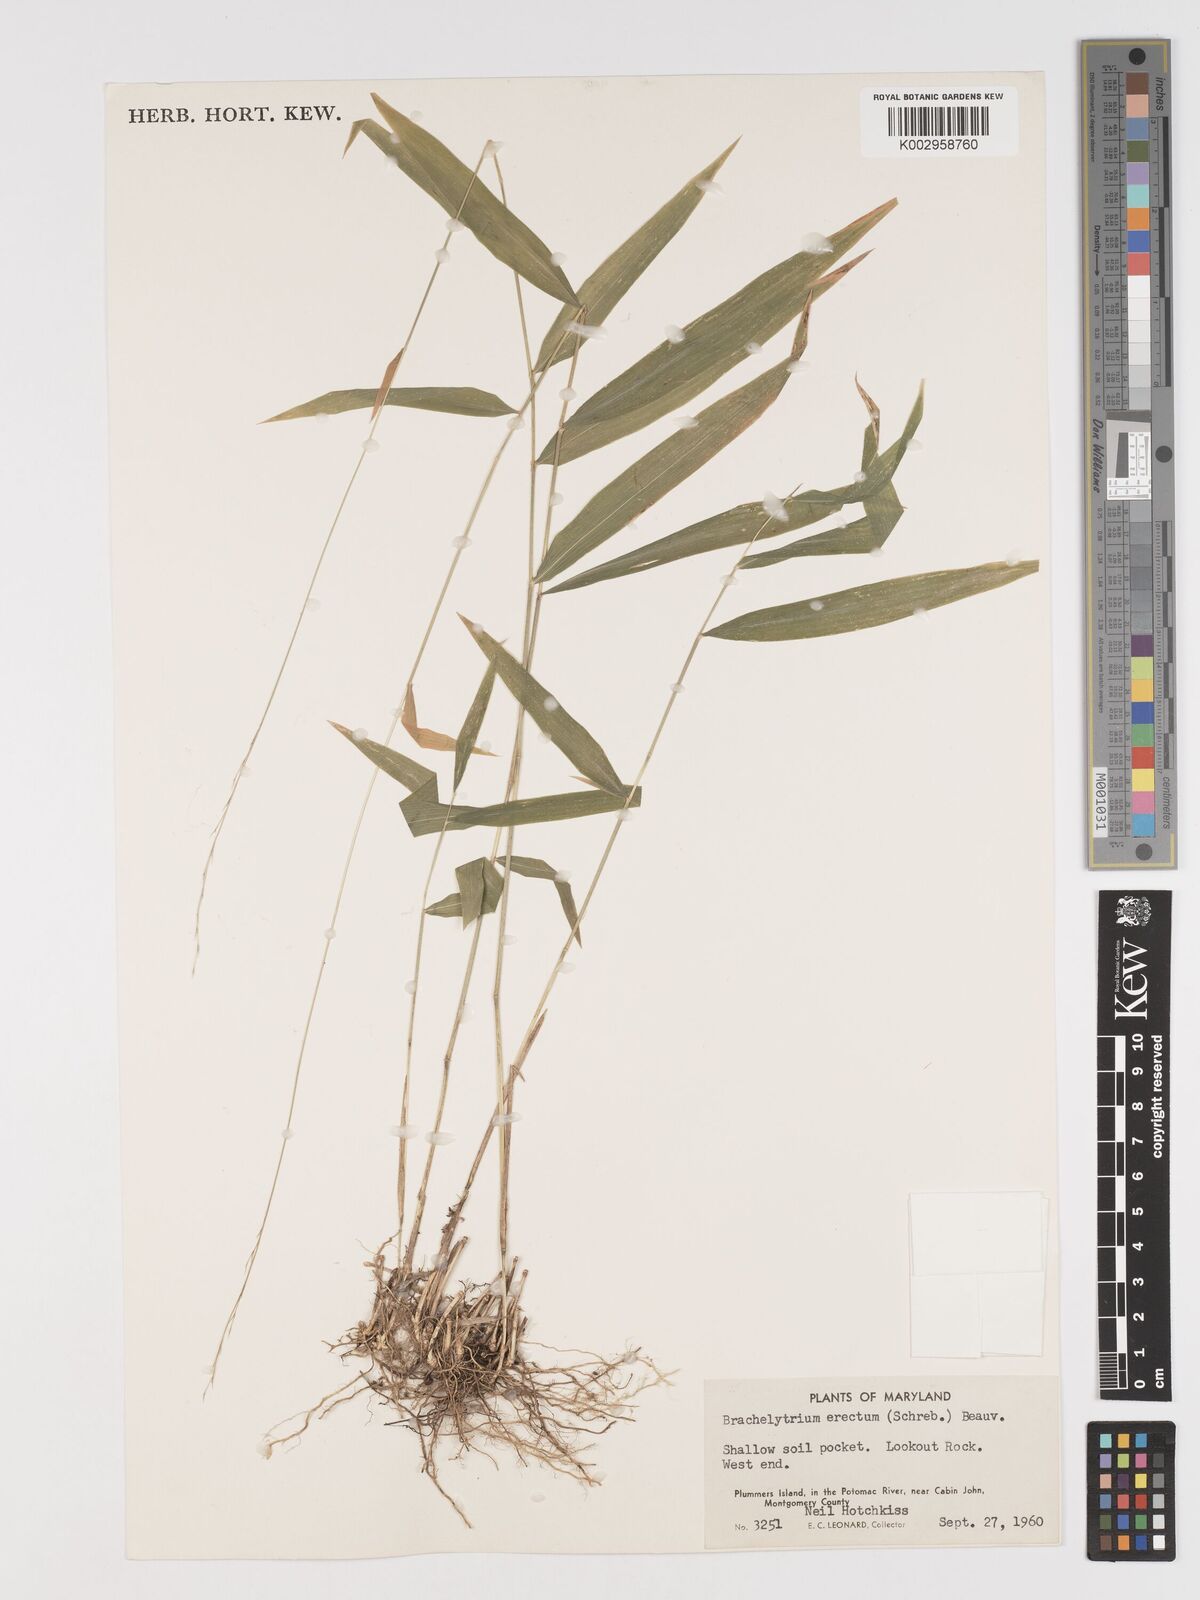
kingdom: Plantae
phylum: Tracheophyta
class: Liliopsida
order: Poales
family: Poaceae
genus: Brachyelytrum
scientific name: Brachyelytrum erectum
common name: Bearded shorthusk
